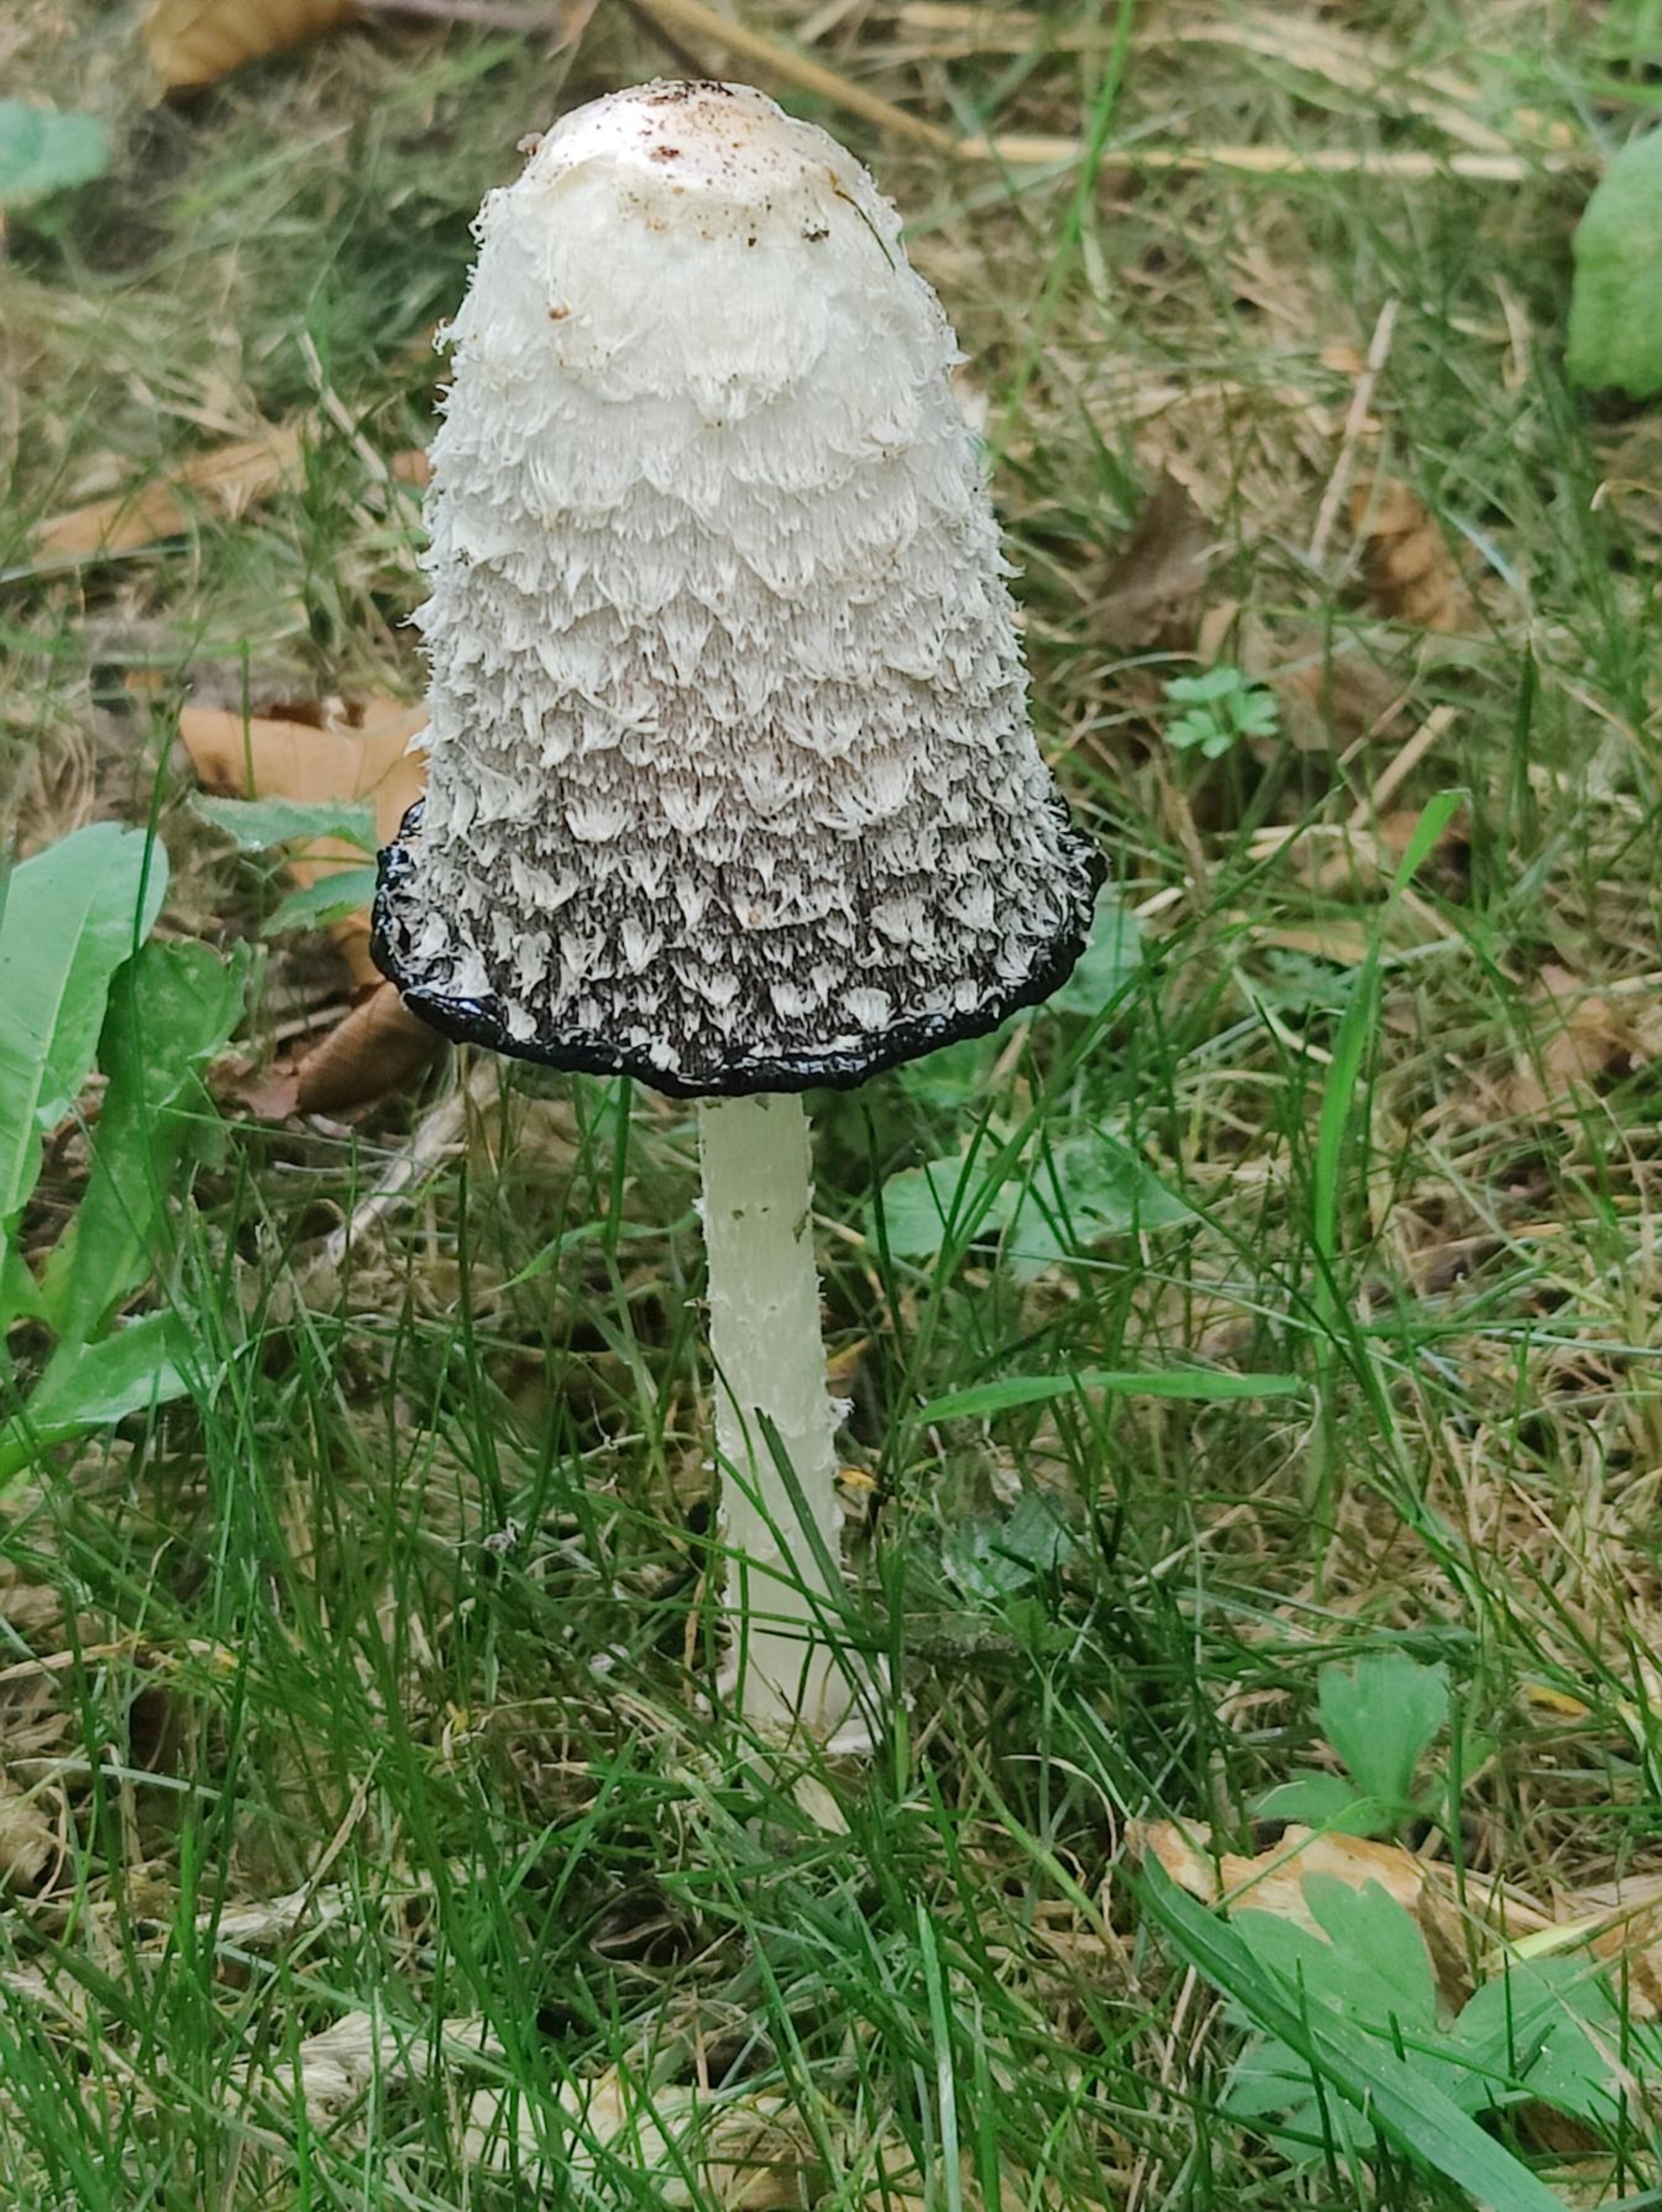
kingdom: Fungi
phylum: Basidiomycota
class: Agaricomycetes
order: Agaricales
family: Agaricaceae
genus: Coprinus
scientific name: Coprinus comatus
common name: Stor parykhat
